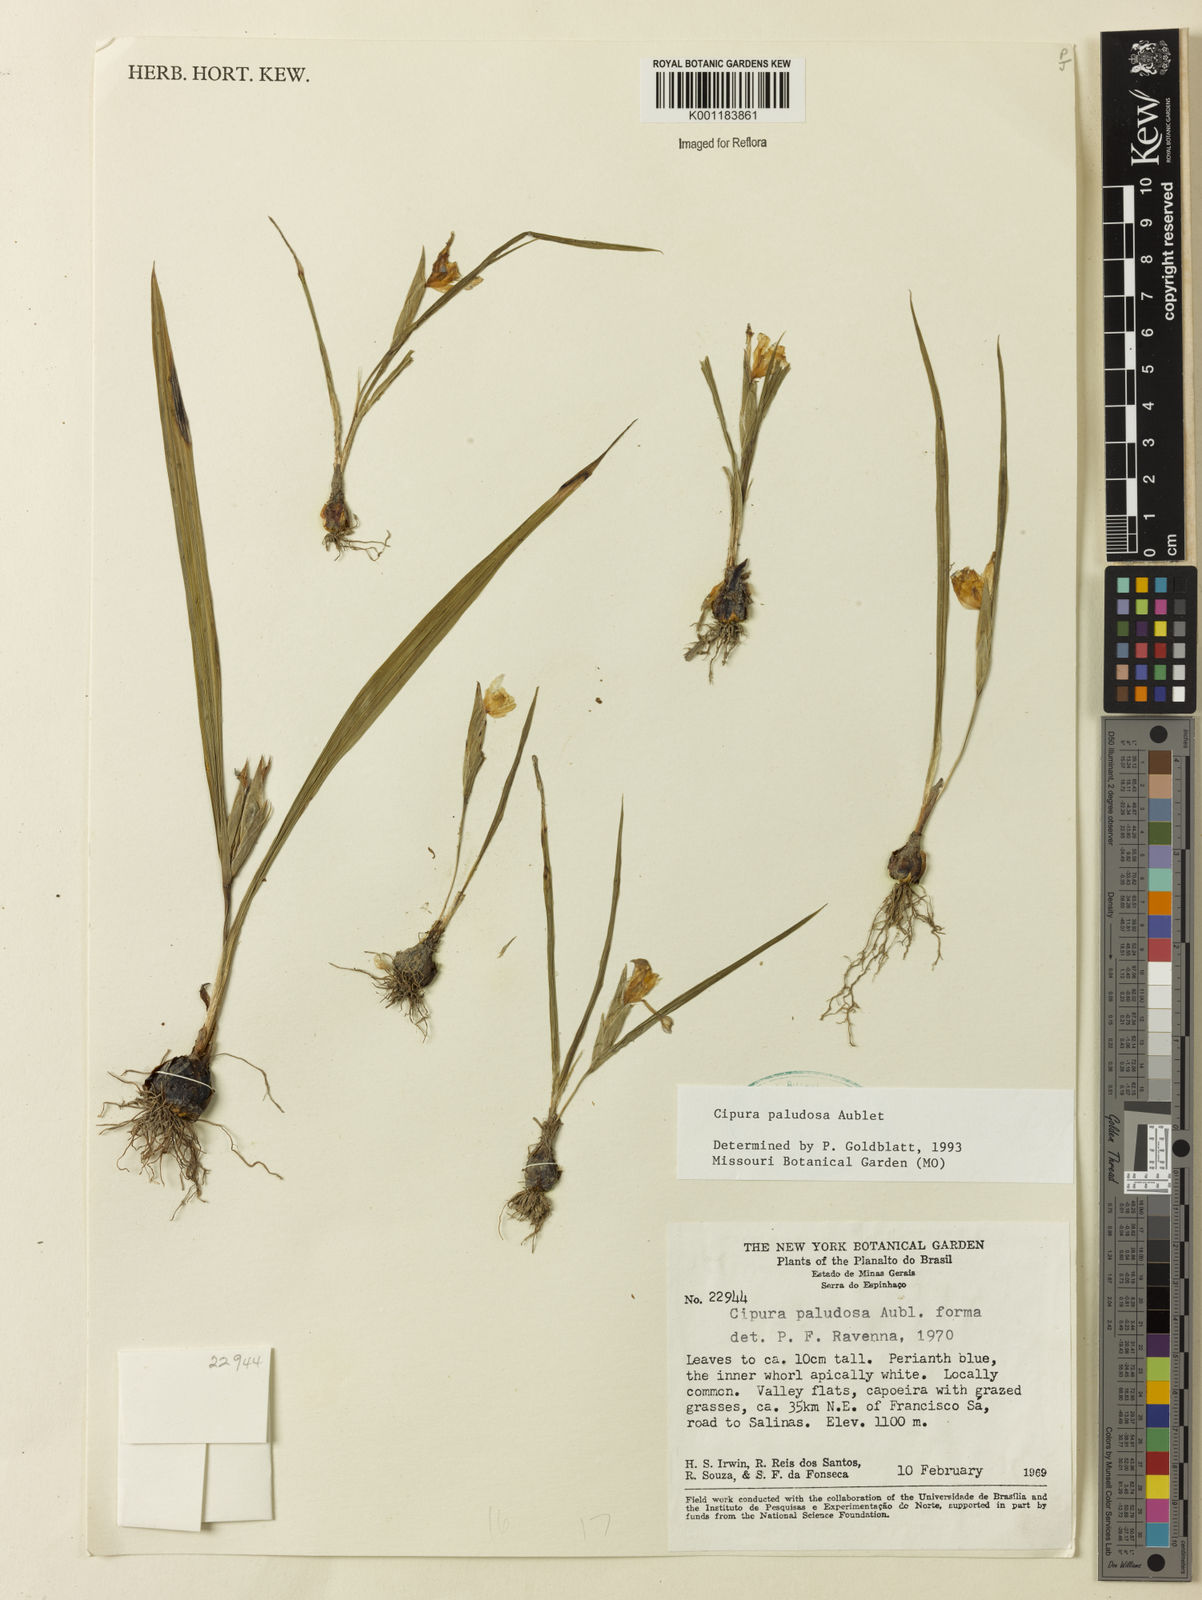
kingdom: Plantae
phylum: Tracheophyta
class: Liliopsida
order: Asparagales
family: Iridaceae
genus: Cipura
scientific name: Cipura paludosa
